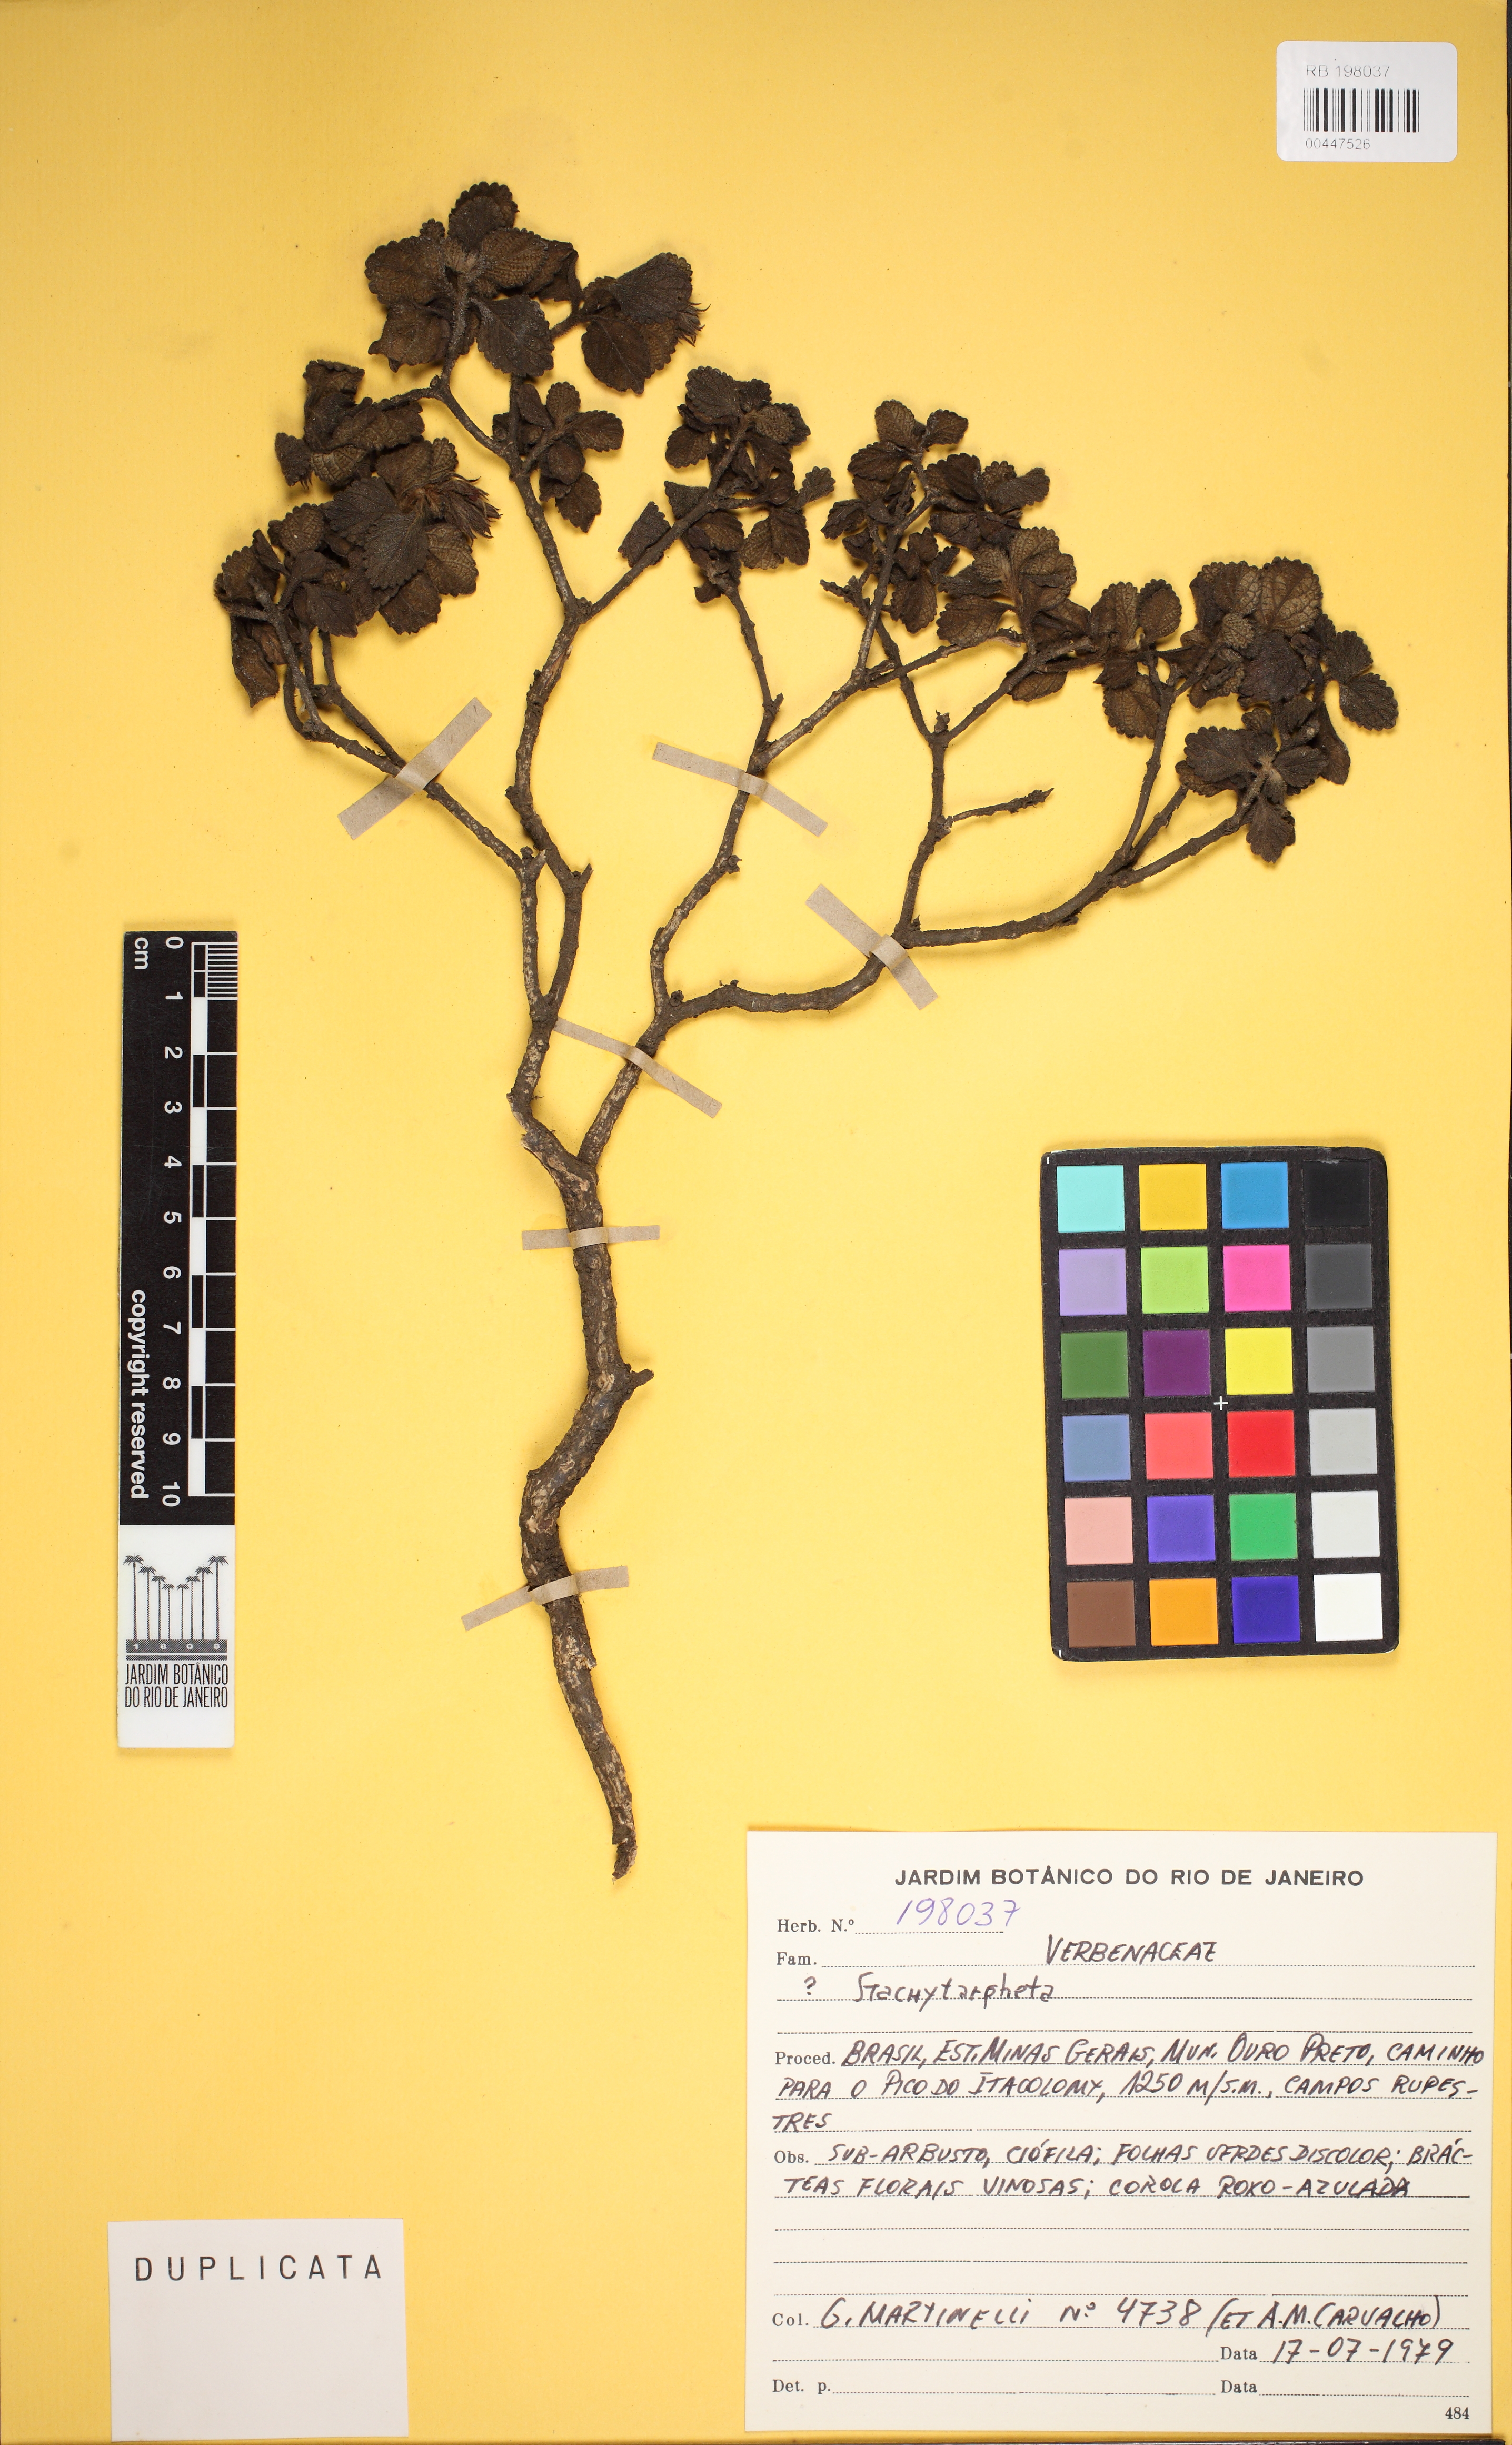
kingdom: Plantae
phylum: Tracheophyta
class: Magnoliopsida
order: Lamiales
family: Verbenaceae
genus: Stachytarpheta
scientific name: Stachytarpheta commutata
